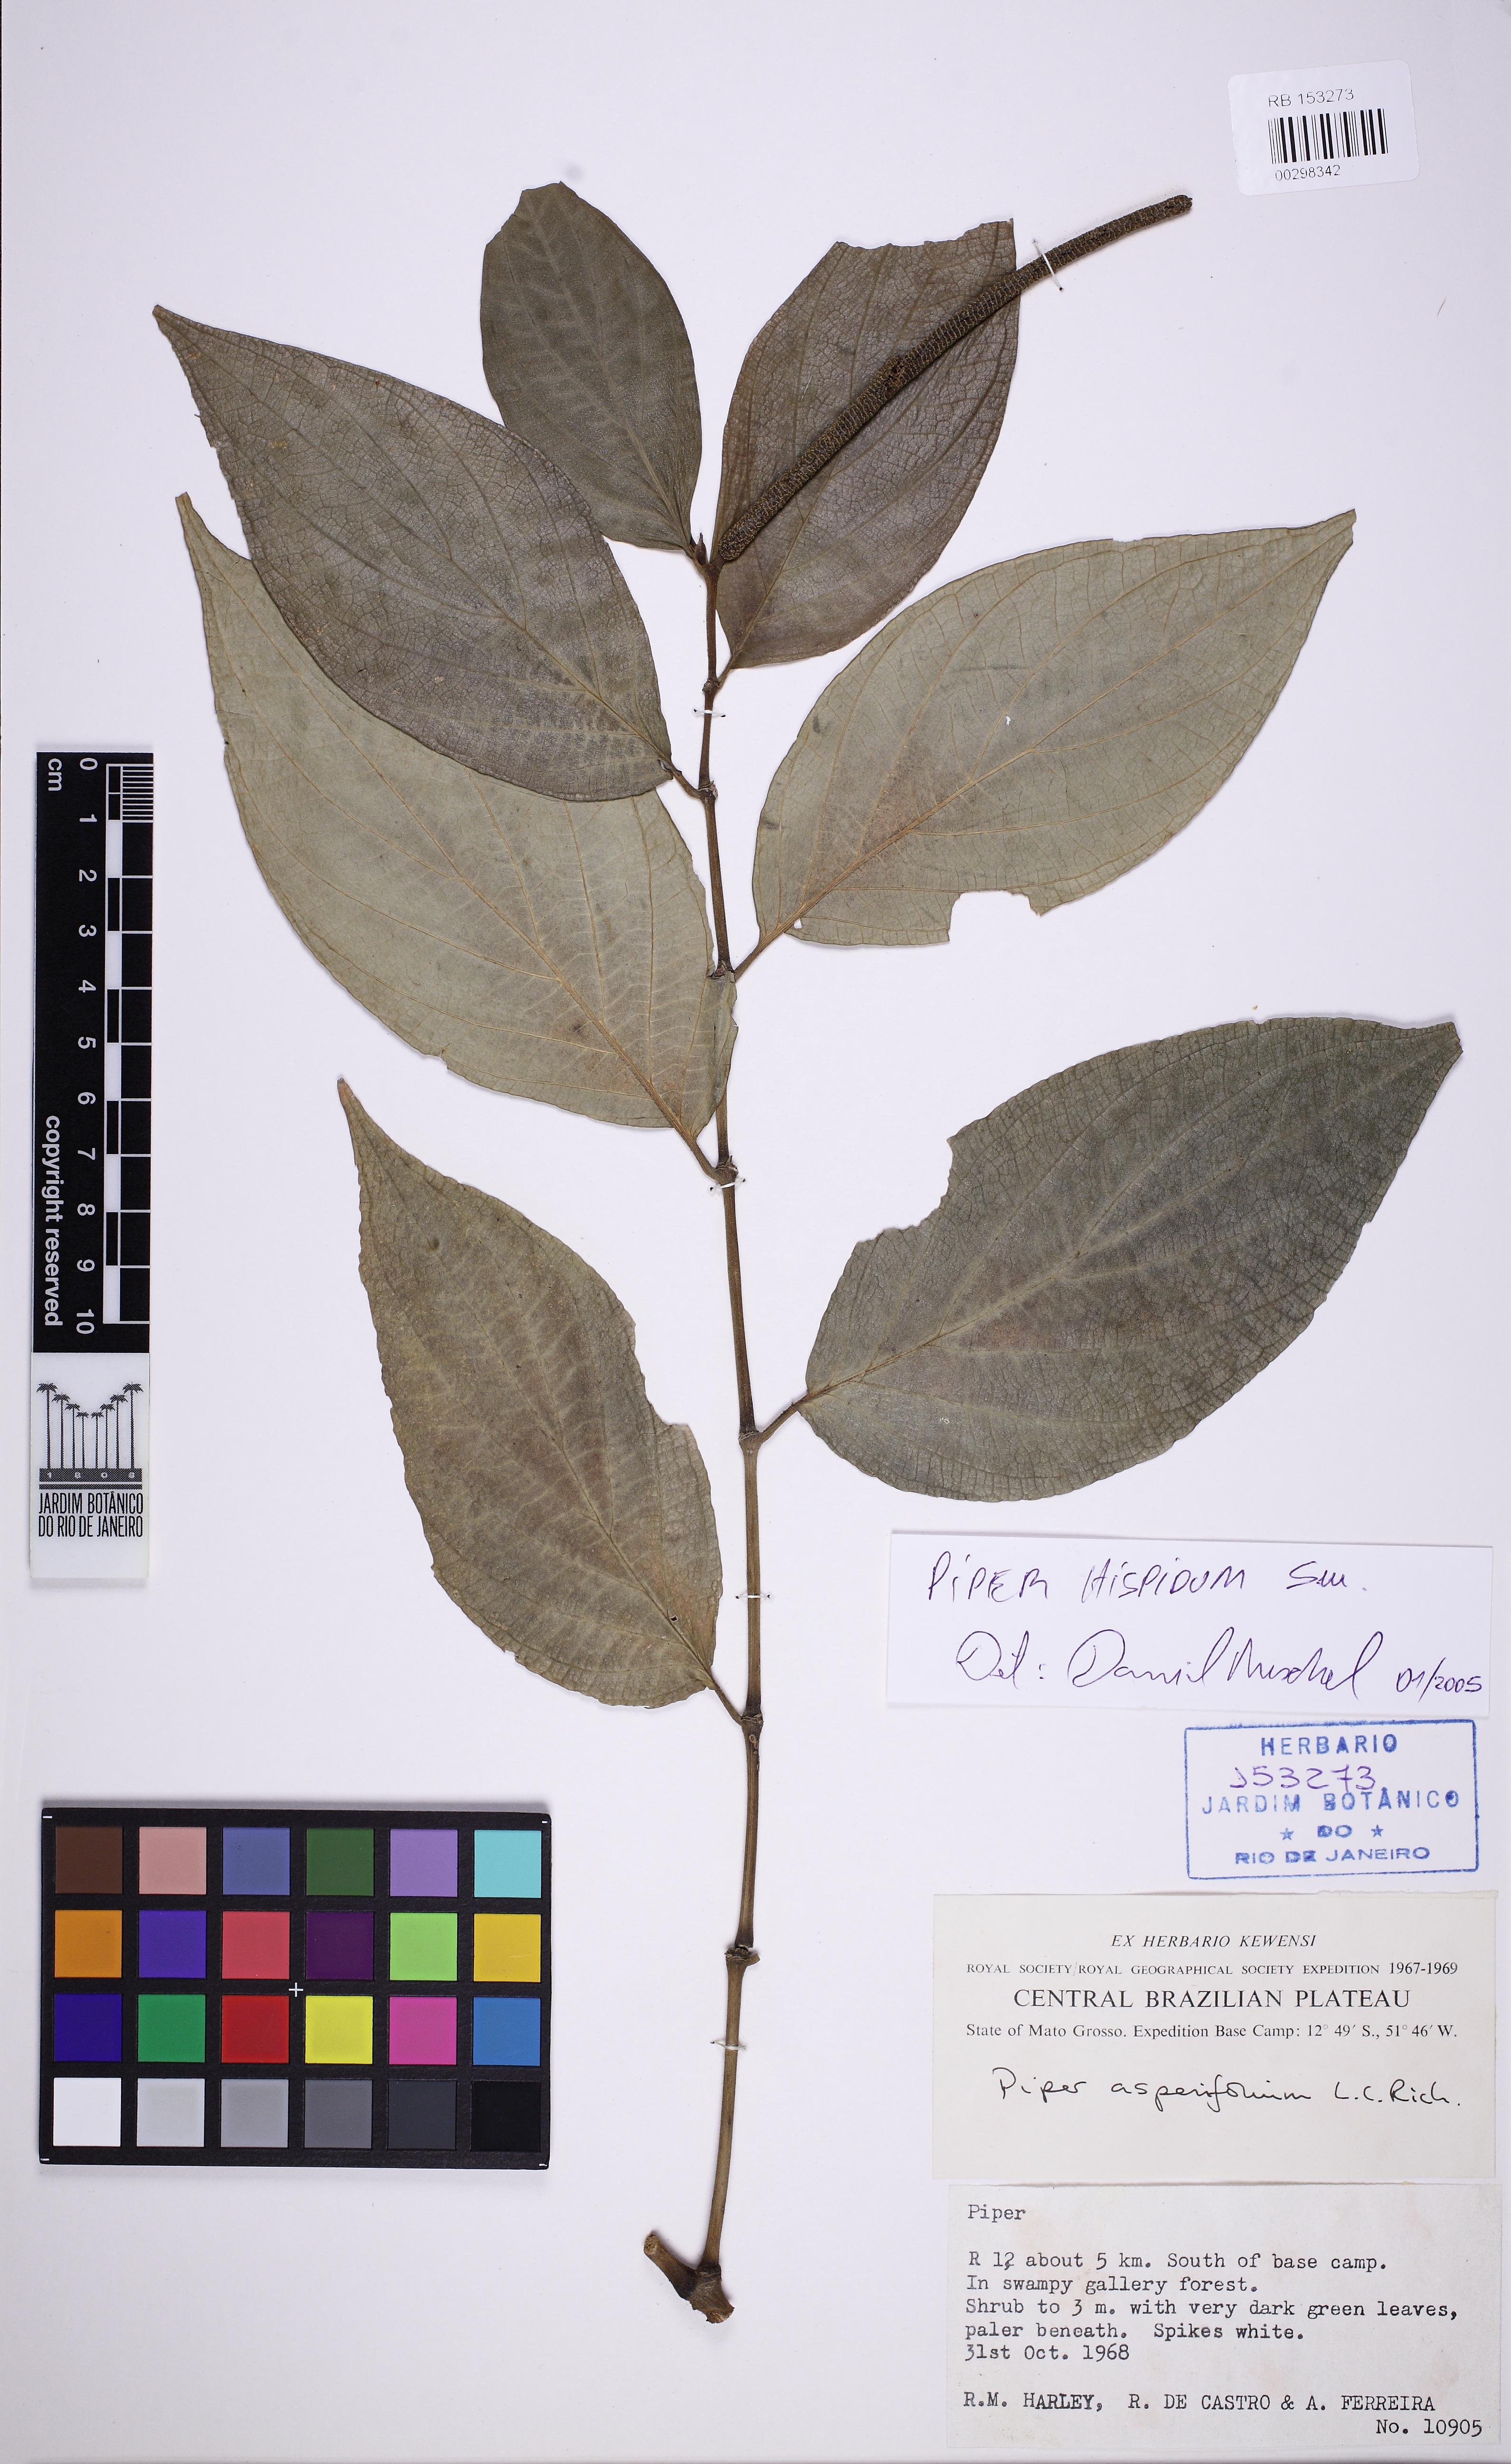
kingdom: Plantae
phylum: Tracheophyta
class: Magnoliopsida
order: Piperales
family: Piperaceae
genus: Piper
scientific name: Piper hispidum
